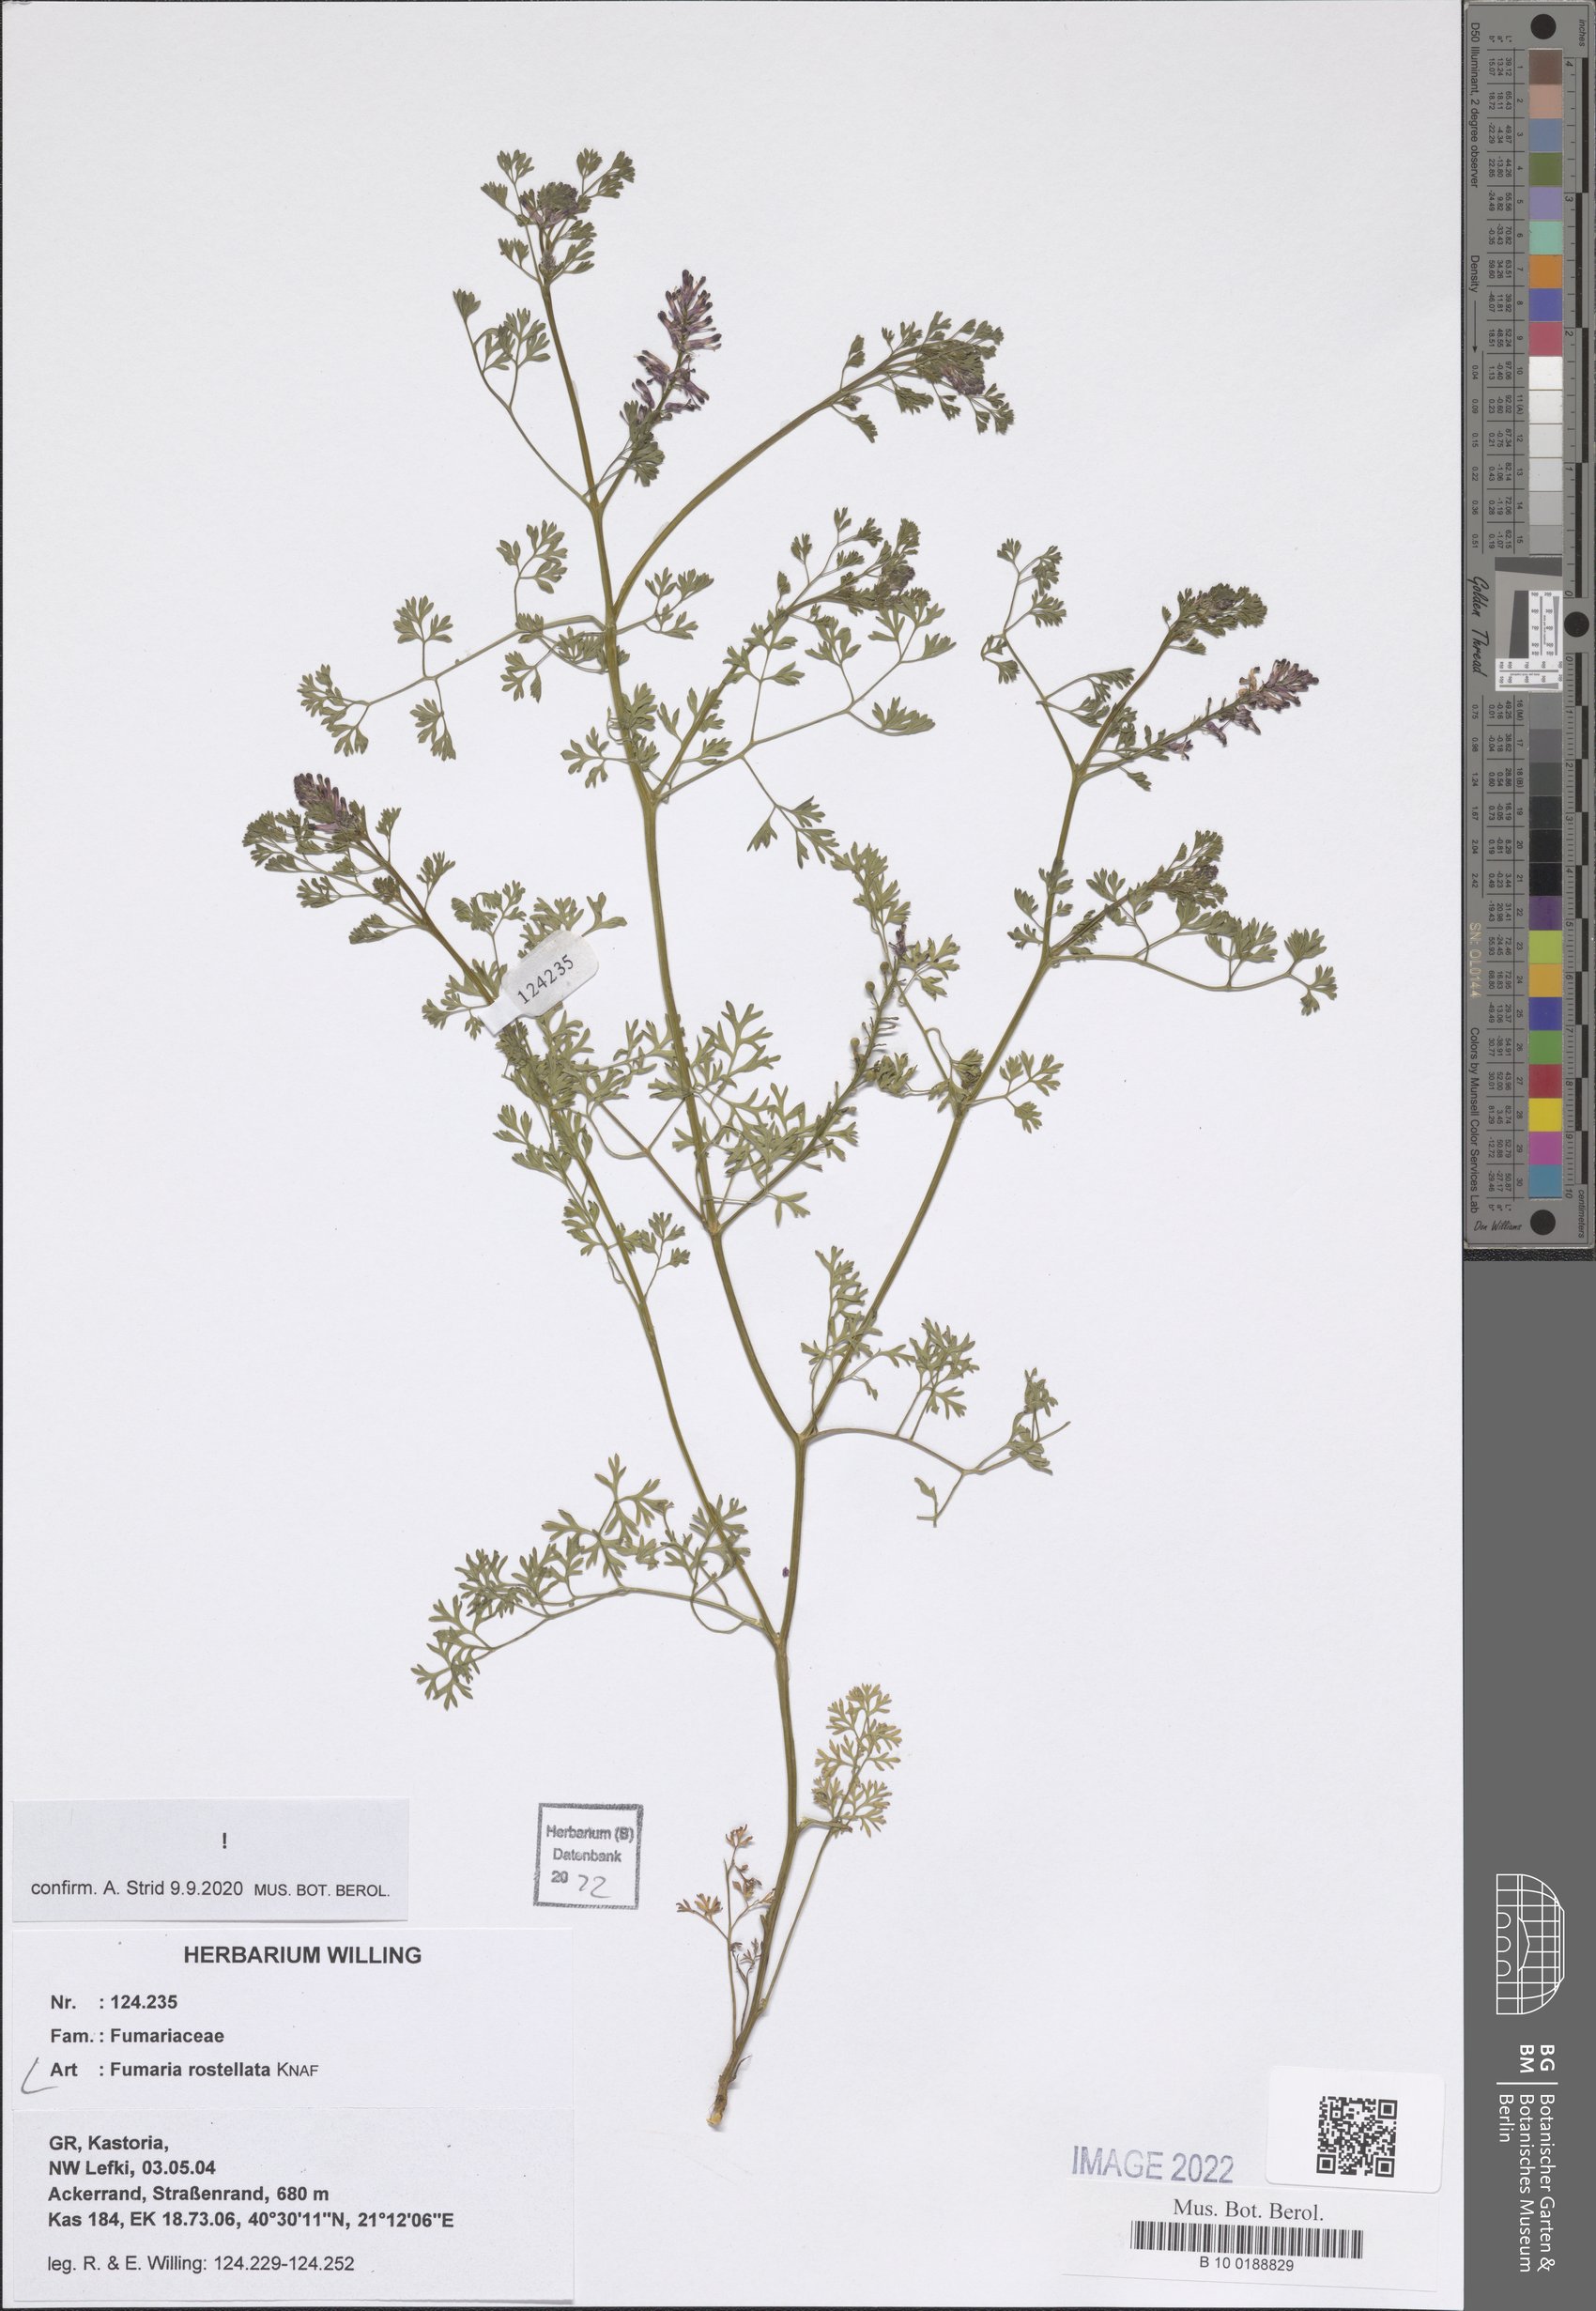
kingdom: Plantae
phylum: Tracheophyta
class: Magnoliopsida
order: Ranunculales
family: Papaveraceae
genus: Fumaria
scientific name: Fumaria rostellata
